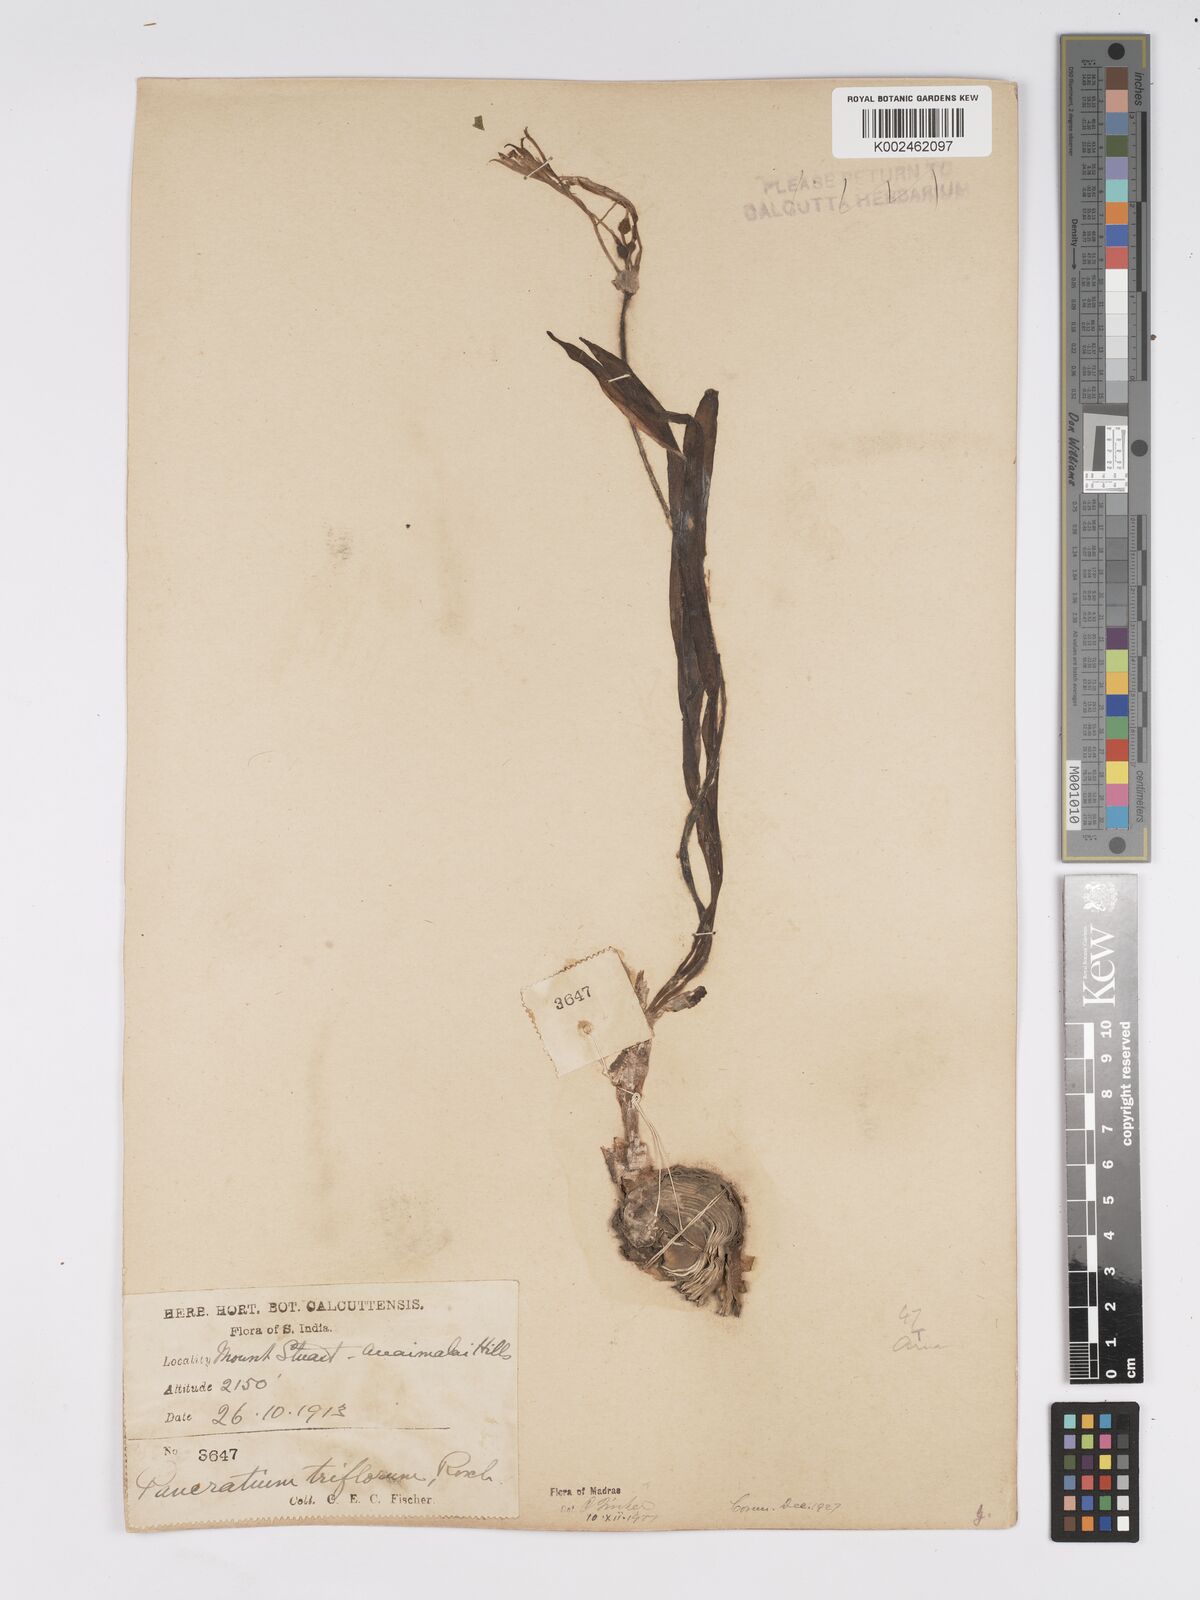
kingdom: Plantae
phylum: Tracheophyta
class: Liliopsida
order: Asparagales
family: Amaryllidaceae
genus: Pancratium
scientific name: Pancratium triflorum
